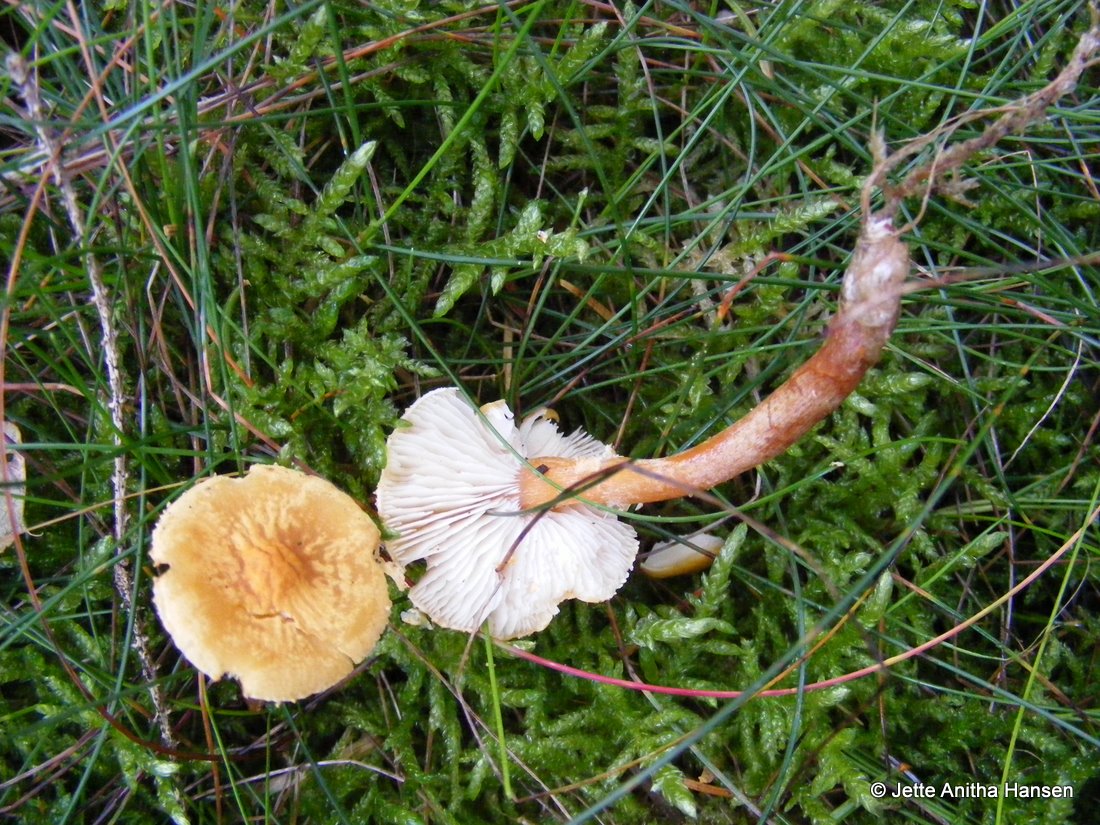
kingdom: Fungi
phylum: Basidiomycota
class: Agaricomycetes
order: Agaricales
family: Tricholomataceae
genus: Cystoderma
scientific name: Cystoderma amianthinum
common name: okkergul grynhat
